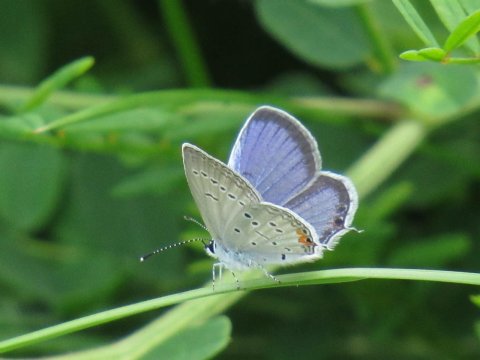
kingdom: Animalia
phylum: Arthropoda
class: Insecta
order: Lepidoptera
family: Lycaenidae
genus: Elkalyce
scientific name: Elkalyce comyntas
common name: Eastern Tailed-Blue
